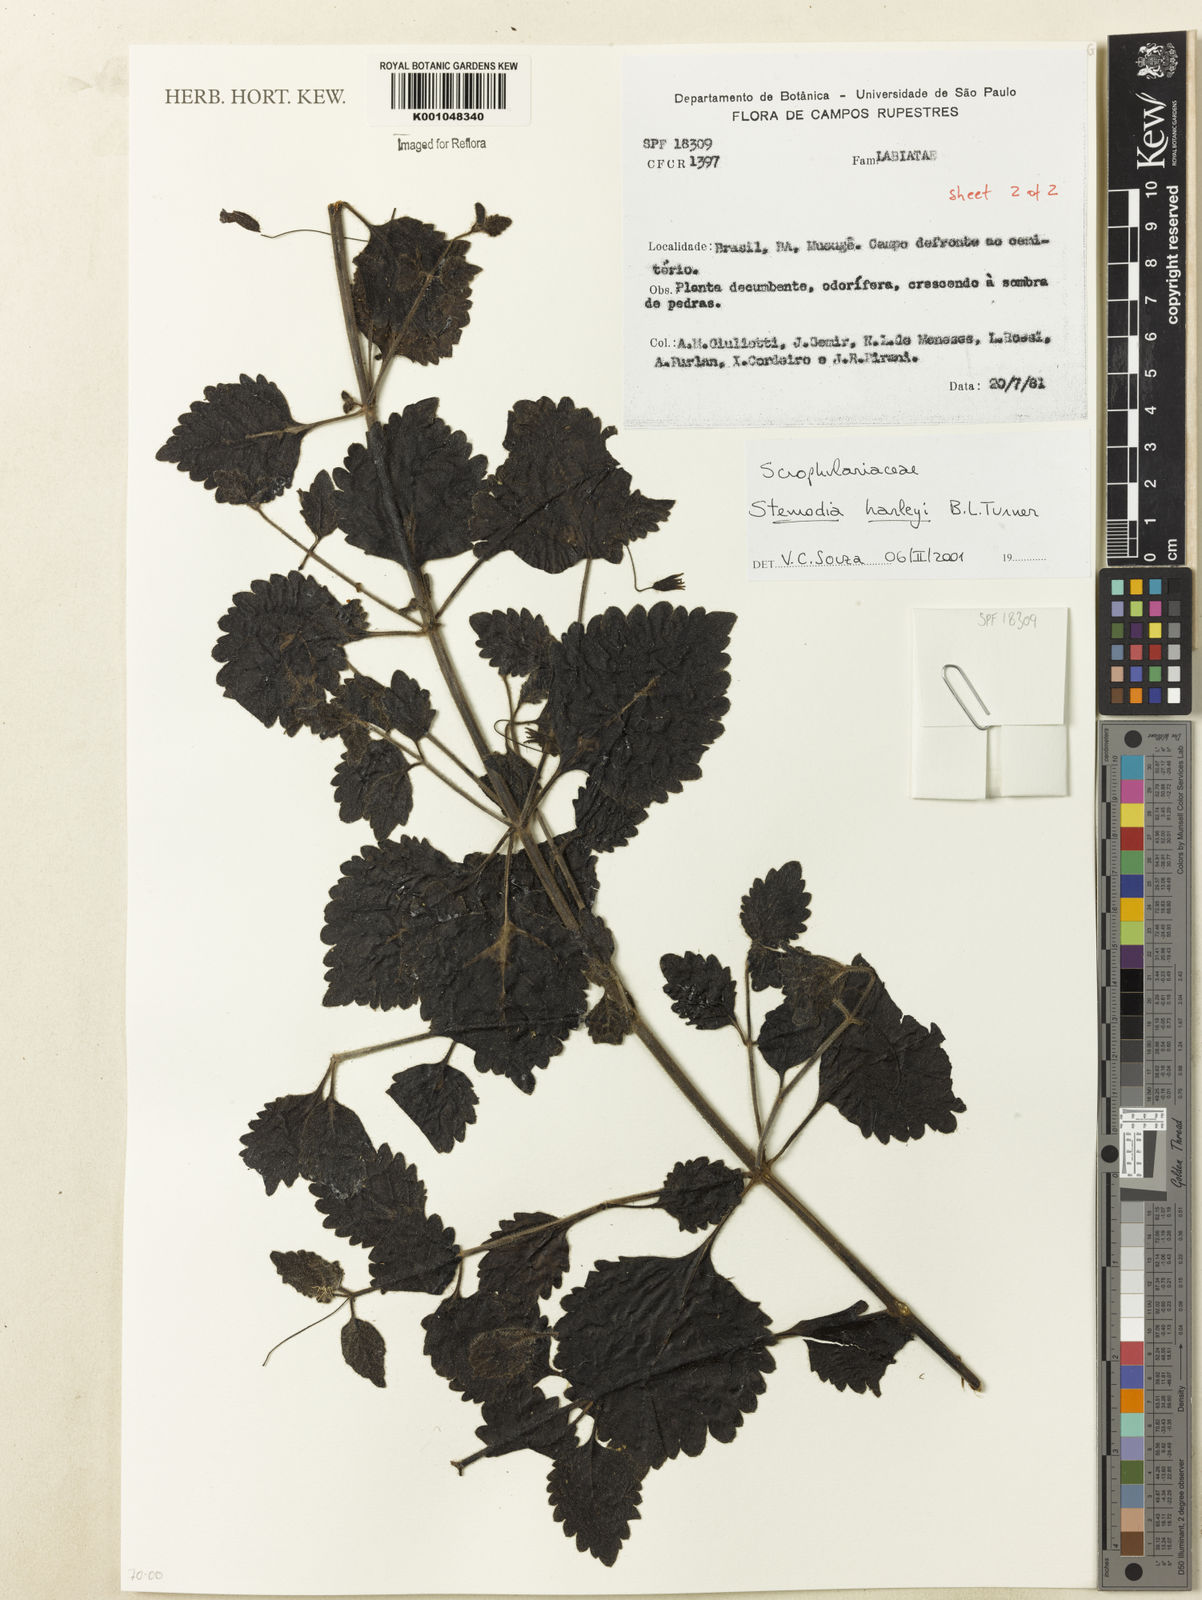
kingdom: Plantae
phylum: Tracheophyta
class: Magnoliopsida
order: Lamiales
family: Plantaginaceae
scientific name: Plantaginaceae
